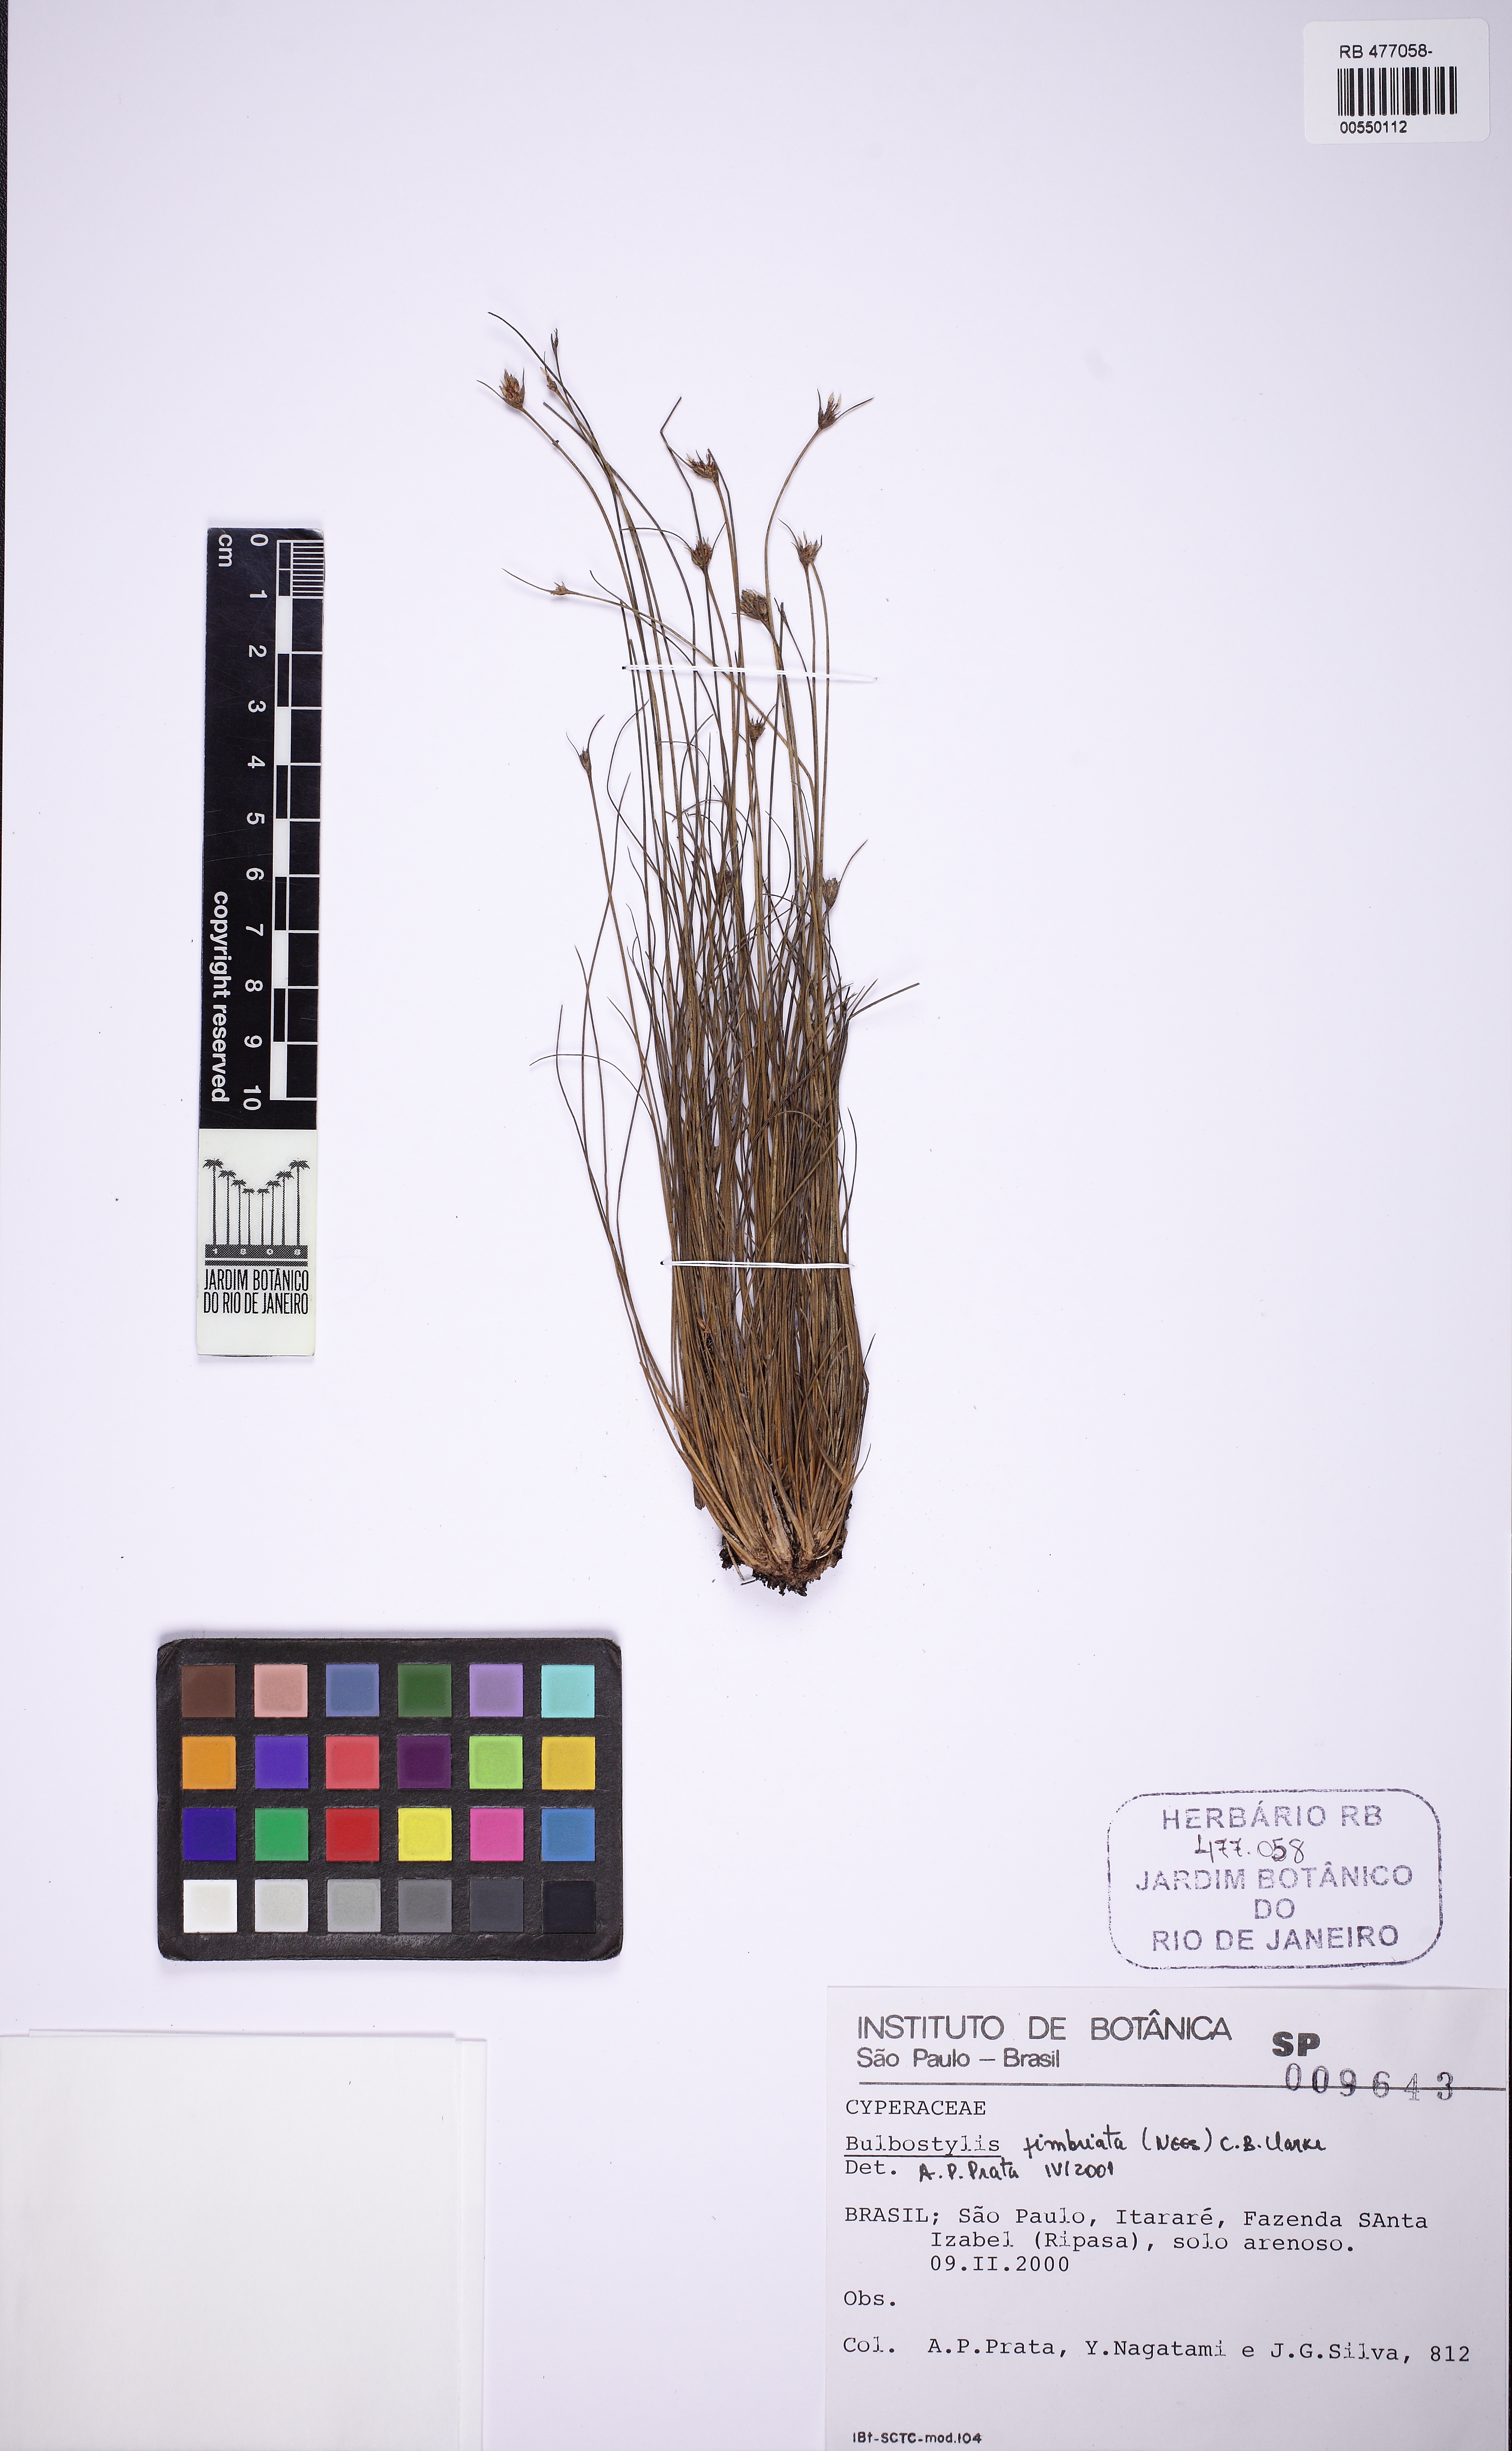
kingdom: Plantae
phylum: Tracheophyta
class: Liliopsida
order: Poales
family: Cyperaceae
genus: Bulbostylis
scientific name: Bulbostylis fimbriata
